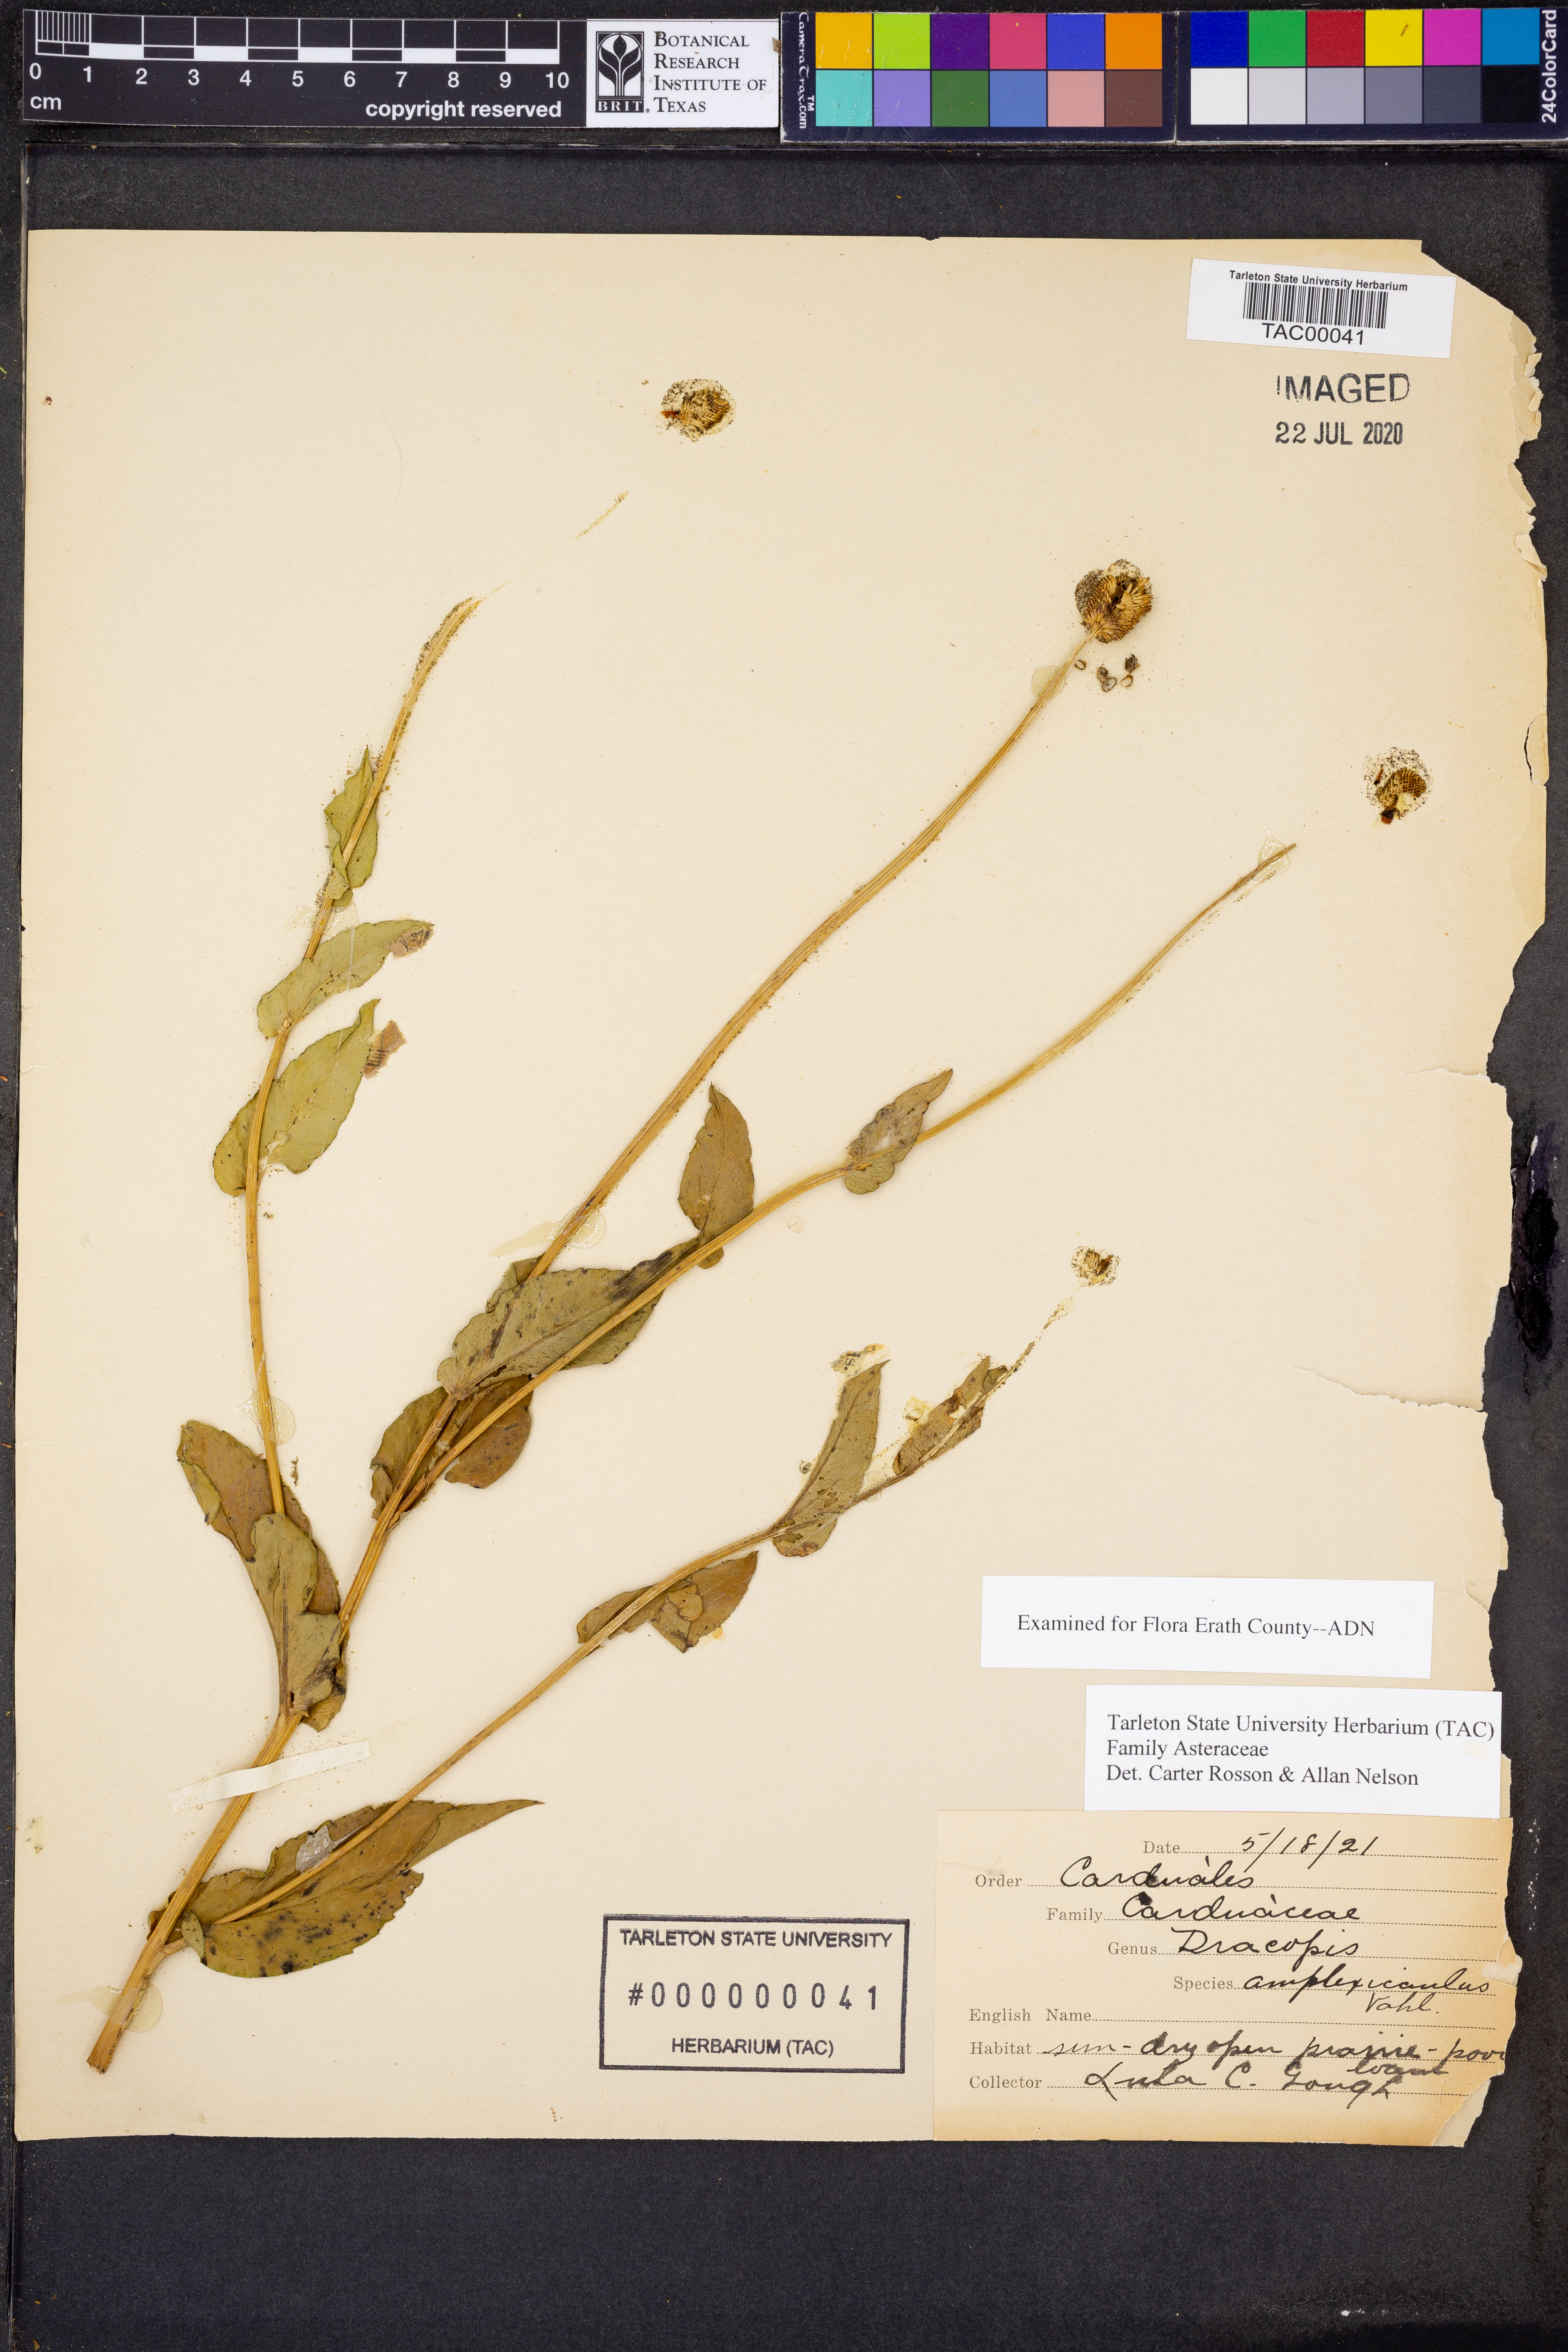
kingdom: Plantae
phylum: Tracheophyta
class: Magnoliopsida
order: Asterales
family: Asteraceae
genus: Rudbeckia
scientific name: Rudbeckia amplexicaulis
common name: Clasping-leaf coneflower
